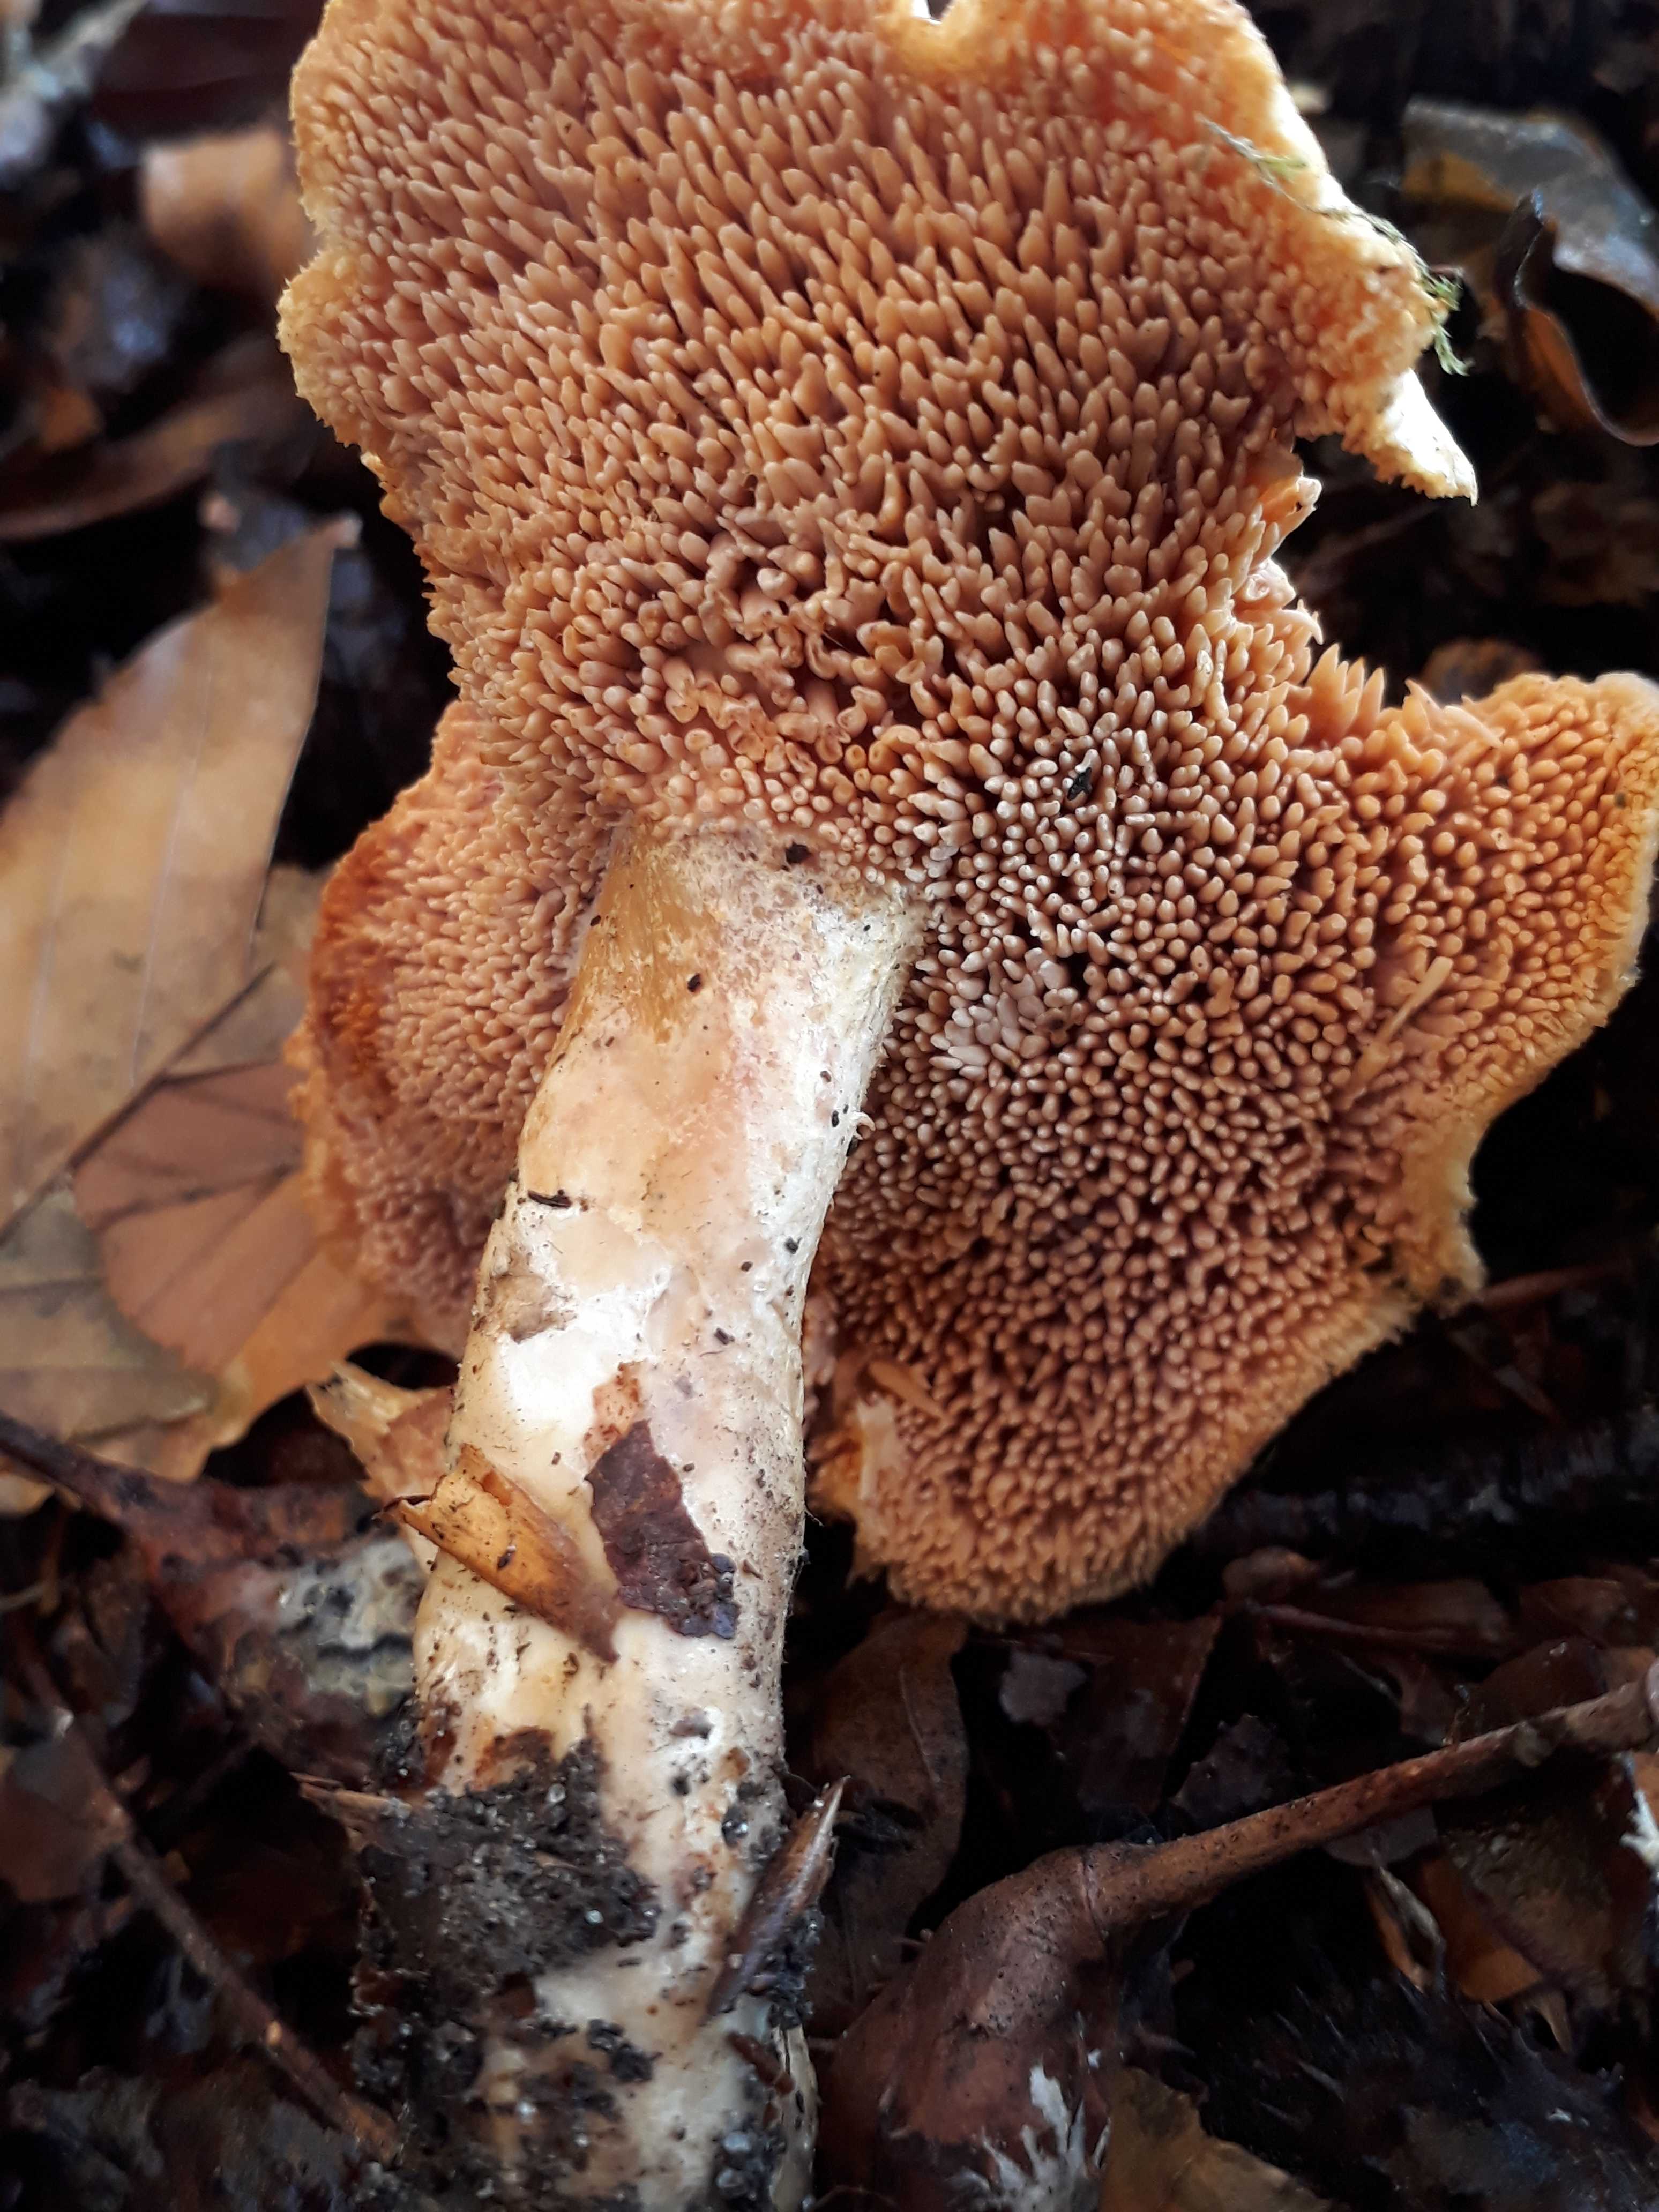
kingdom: Fungi
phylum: Basidiomycota
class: Agaricomycetes
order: Cantharellales
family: Hydnaceae
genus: Hydnum
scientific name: Hydnum
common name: pigsvamp
